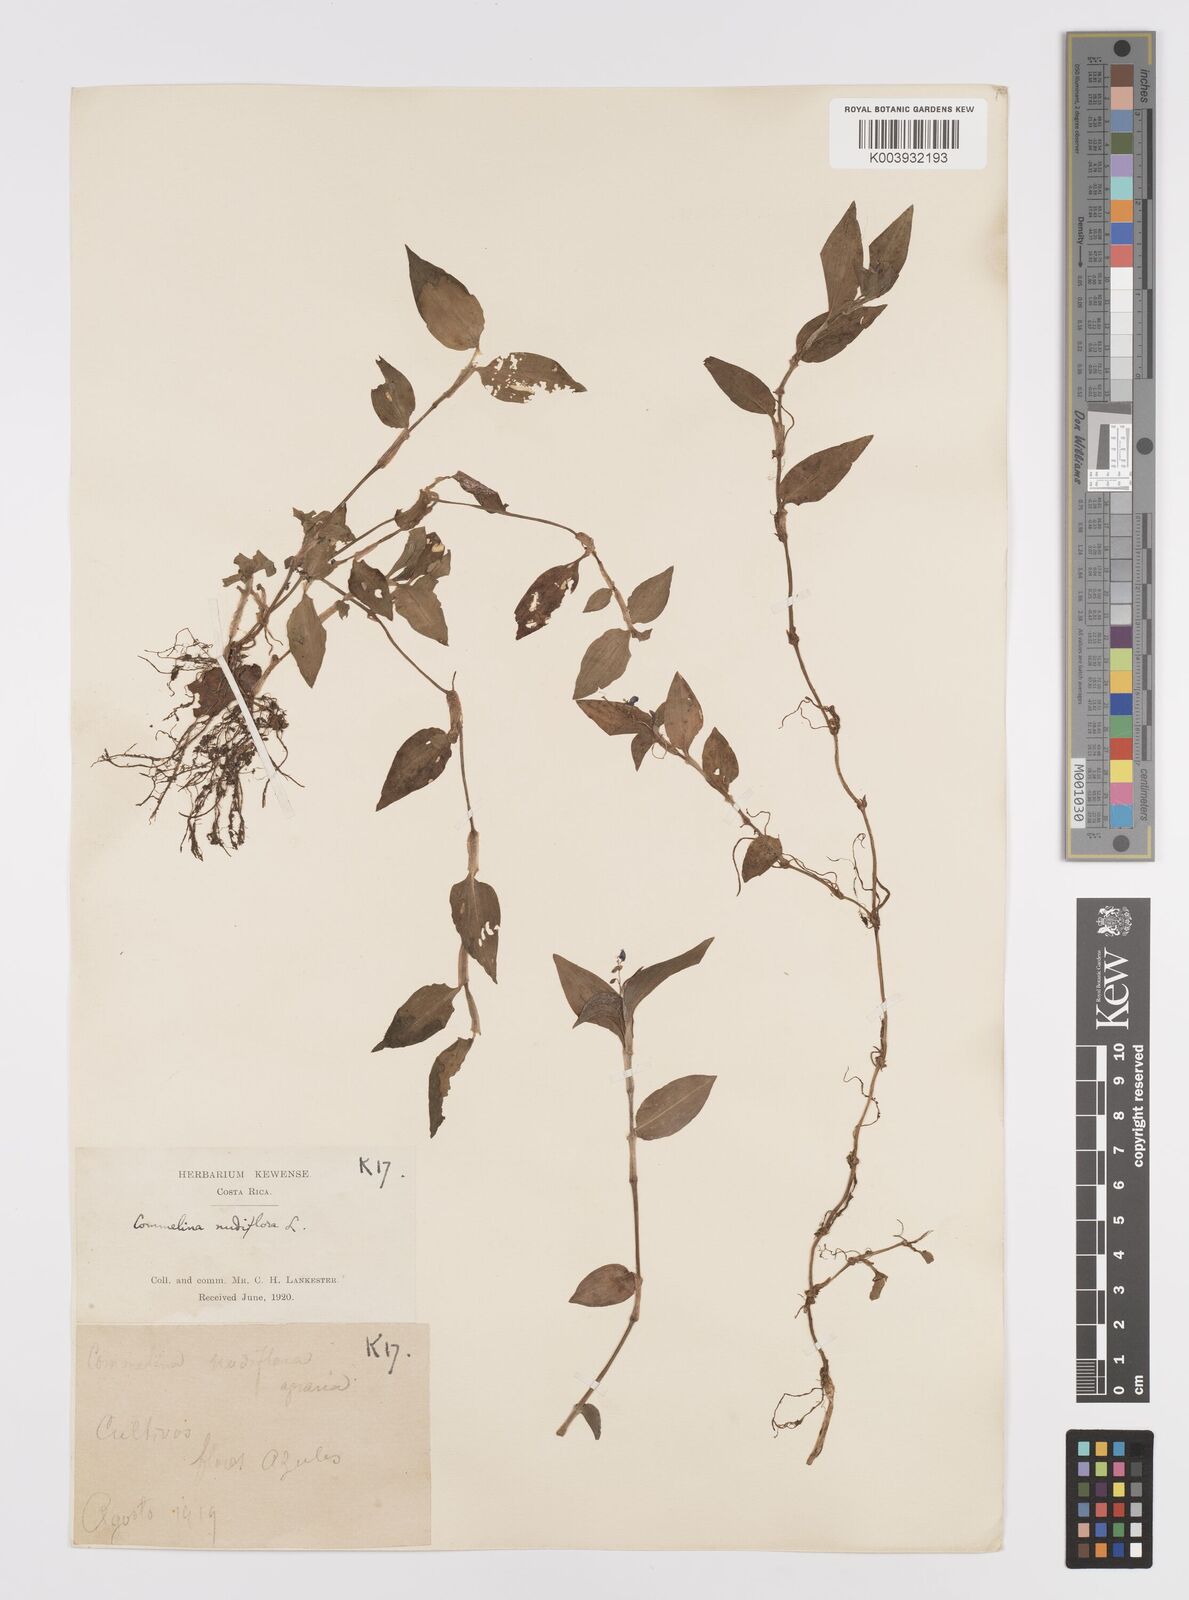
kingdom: Plantae
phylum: Tracheophyta
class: Liliopsida
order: Commelinales
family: Commelinaceae
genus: Commelina
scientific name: Commelina diffusa
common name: Climbing dayflower
